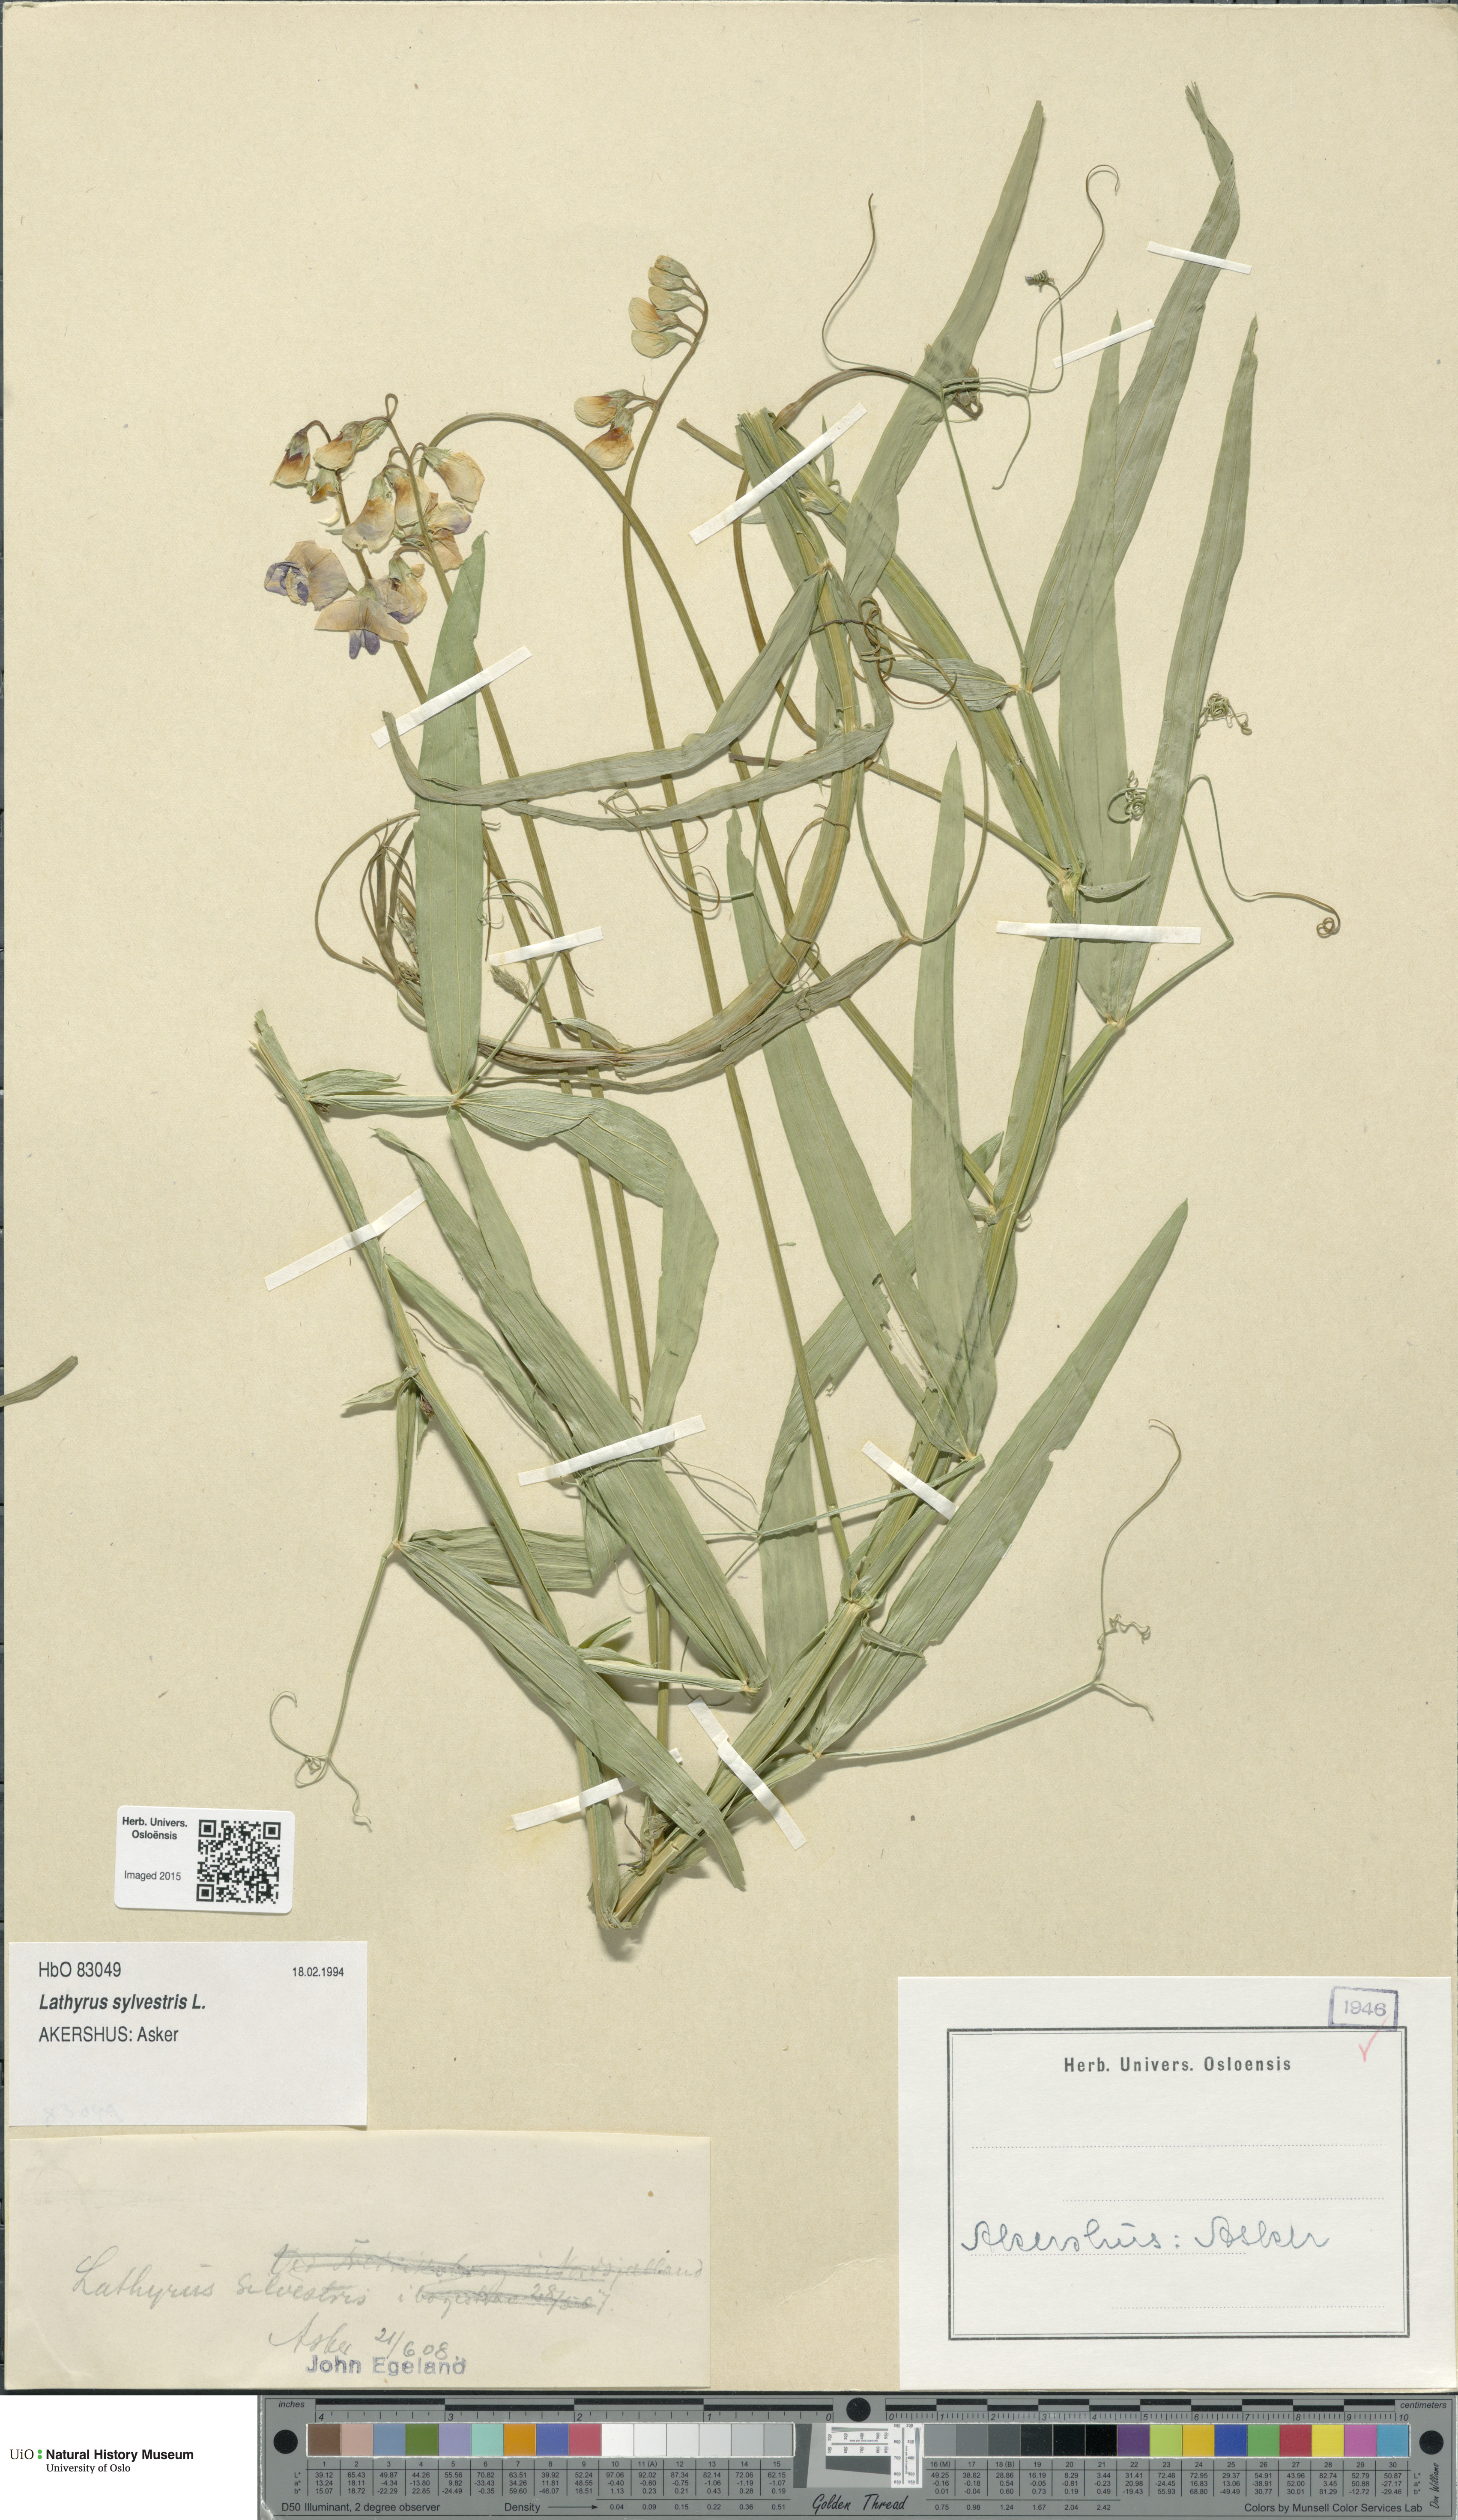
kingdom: Plantae
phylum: Tracheophyta
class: Magnoliopsida
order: Fabales
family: Fabaceae
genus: Lathyrus
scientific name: Lathyrus sylvestris
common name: Flat pea
